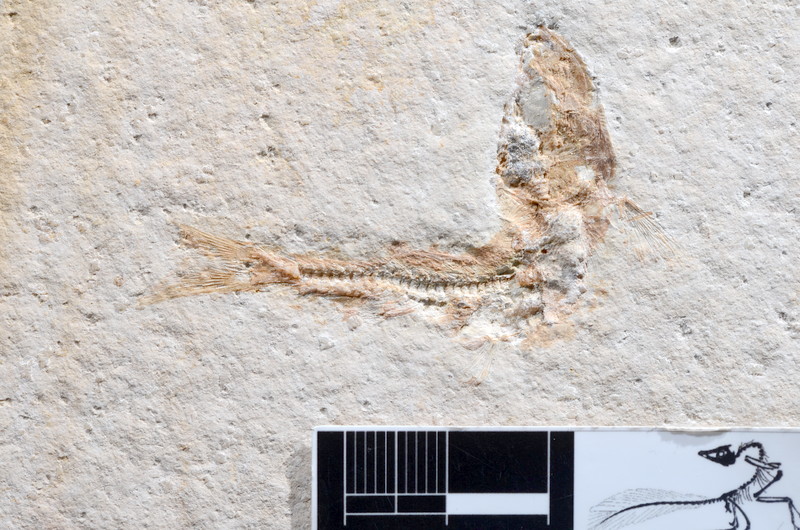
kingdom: Animalia
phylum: Chordata
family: Ascalaboidae
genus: Tharsis
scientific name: Tharsis dubius
